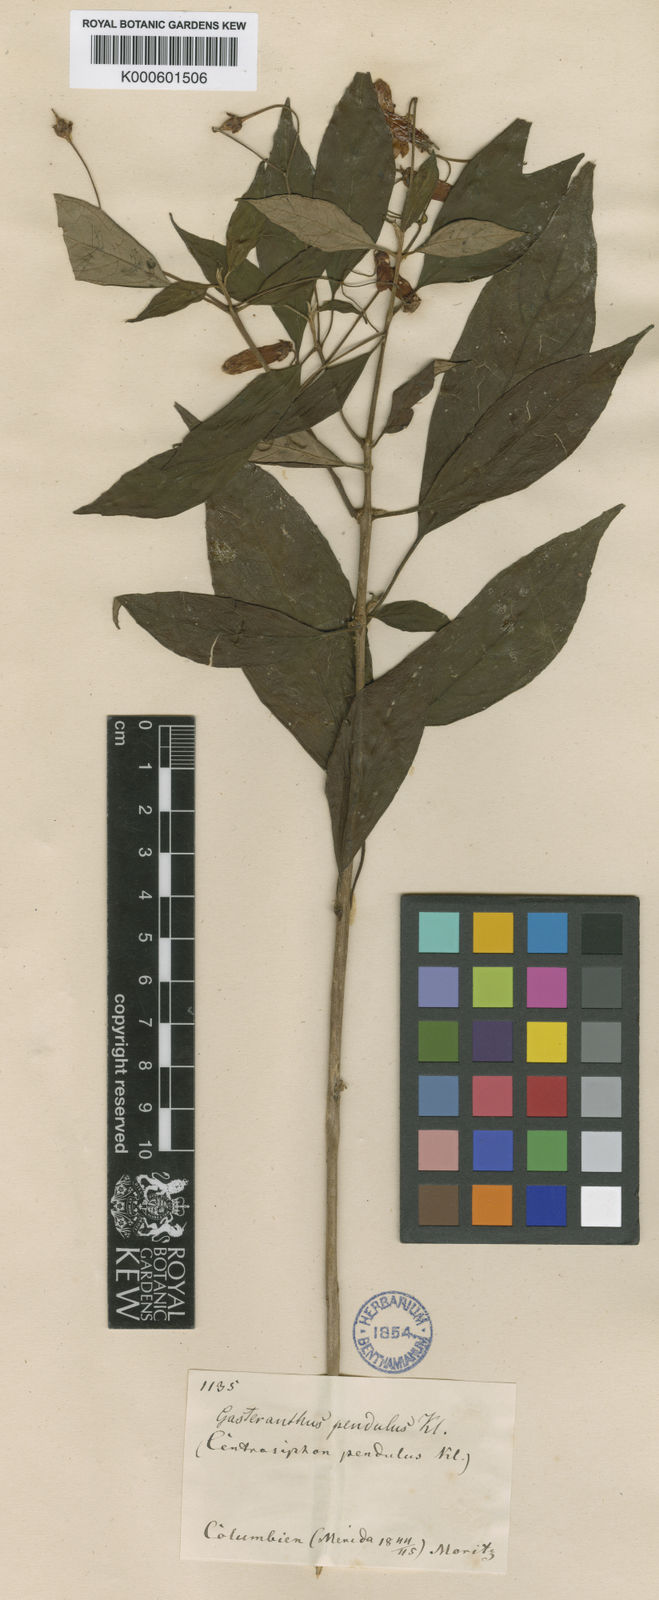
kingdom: Plantae
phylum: Tracheophyta
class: Magnoliopsida
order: Lamiales
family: Gesneriaceae
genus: Besleria
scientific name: Besleria pendula
